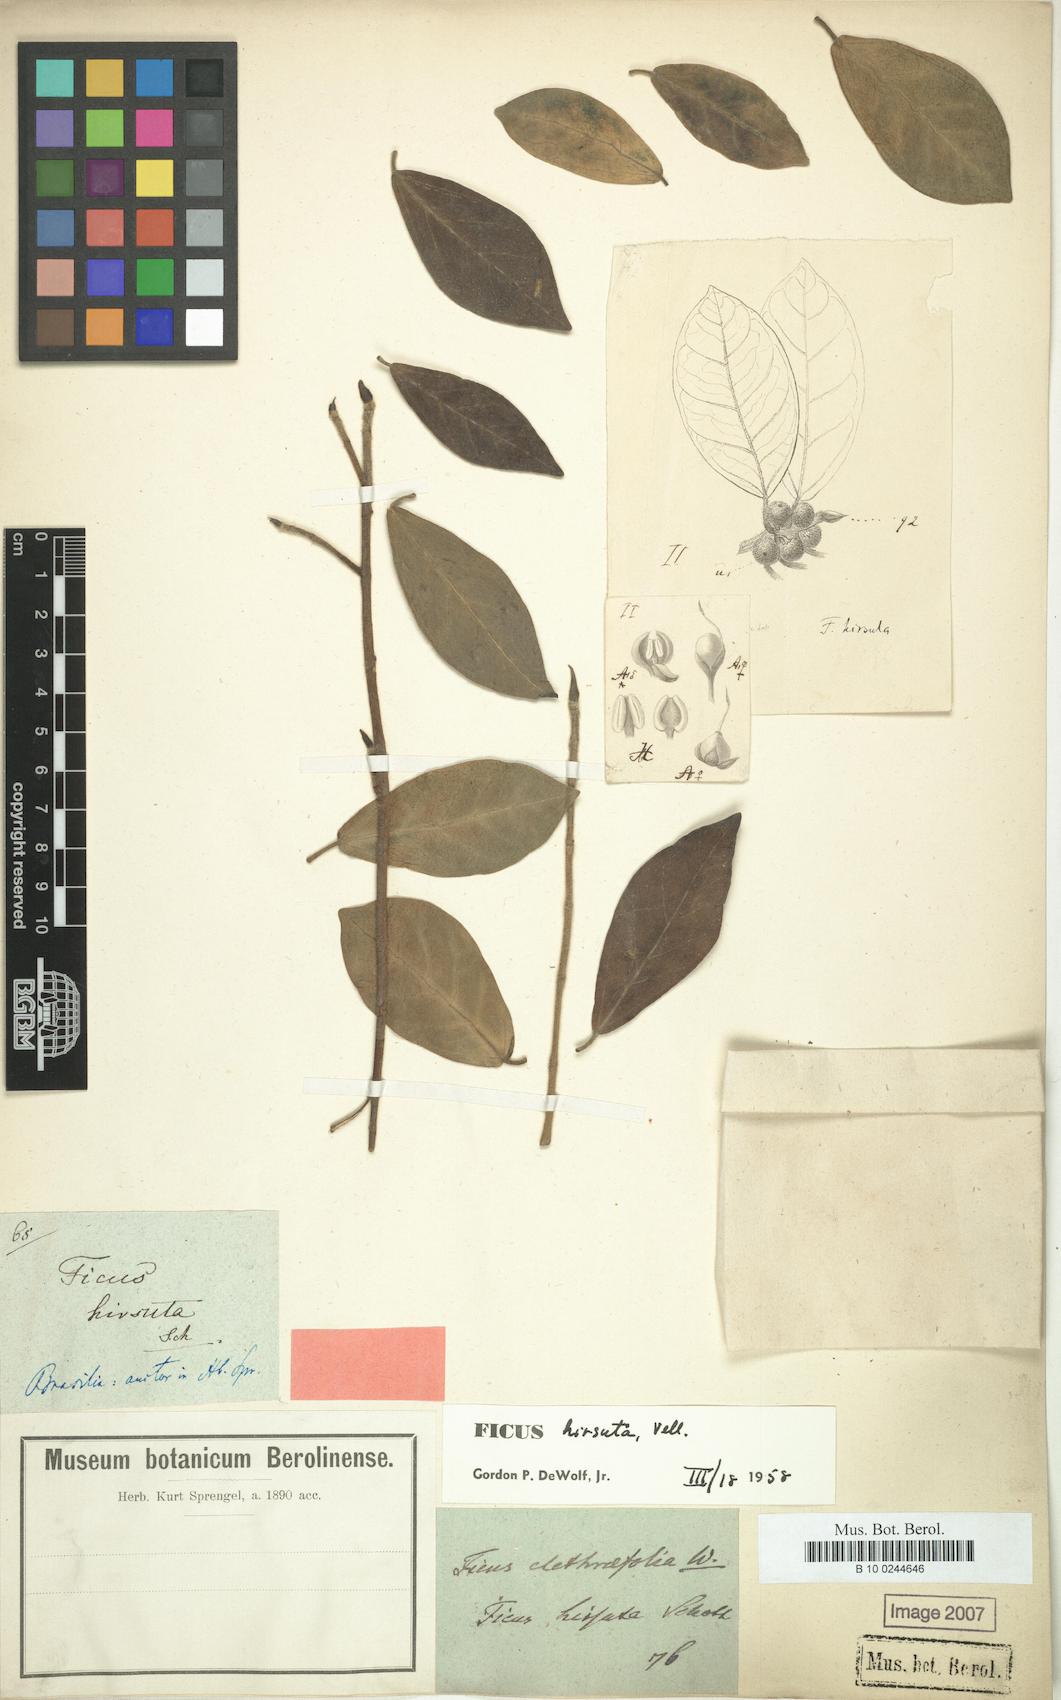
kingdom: Plantae
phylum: Tracheophyta
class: Magnoliopsida
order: Rosales
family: Moraceae
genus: Ficus
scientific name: Ficus hirsuta
